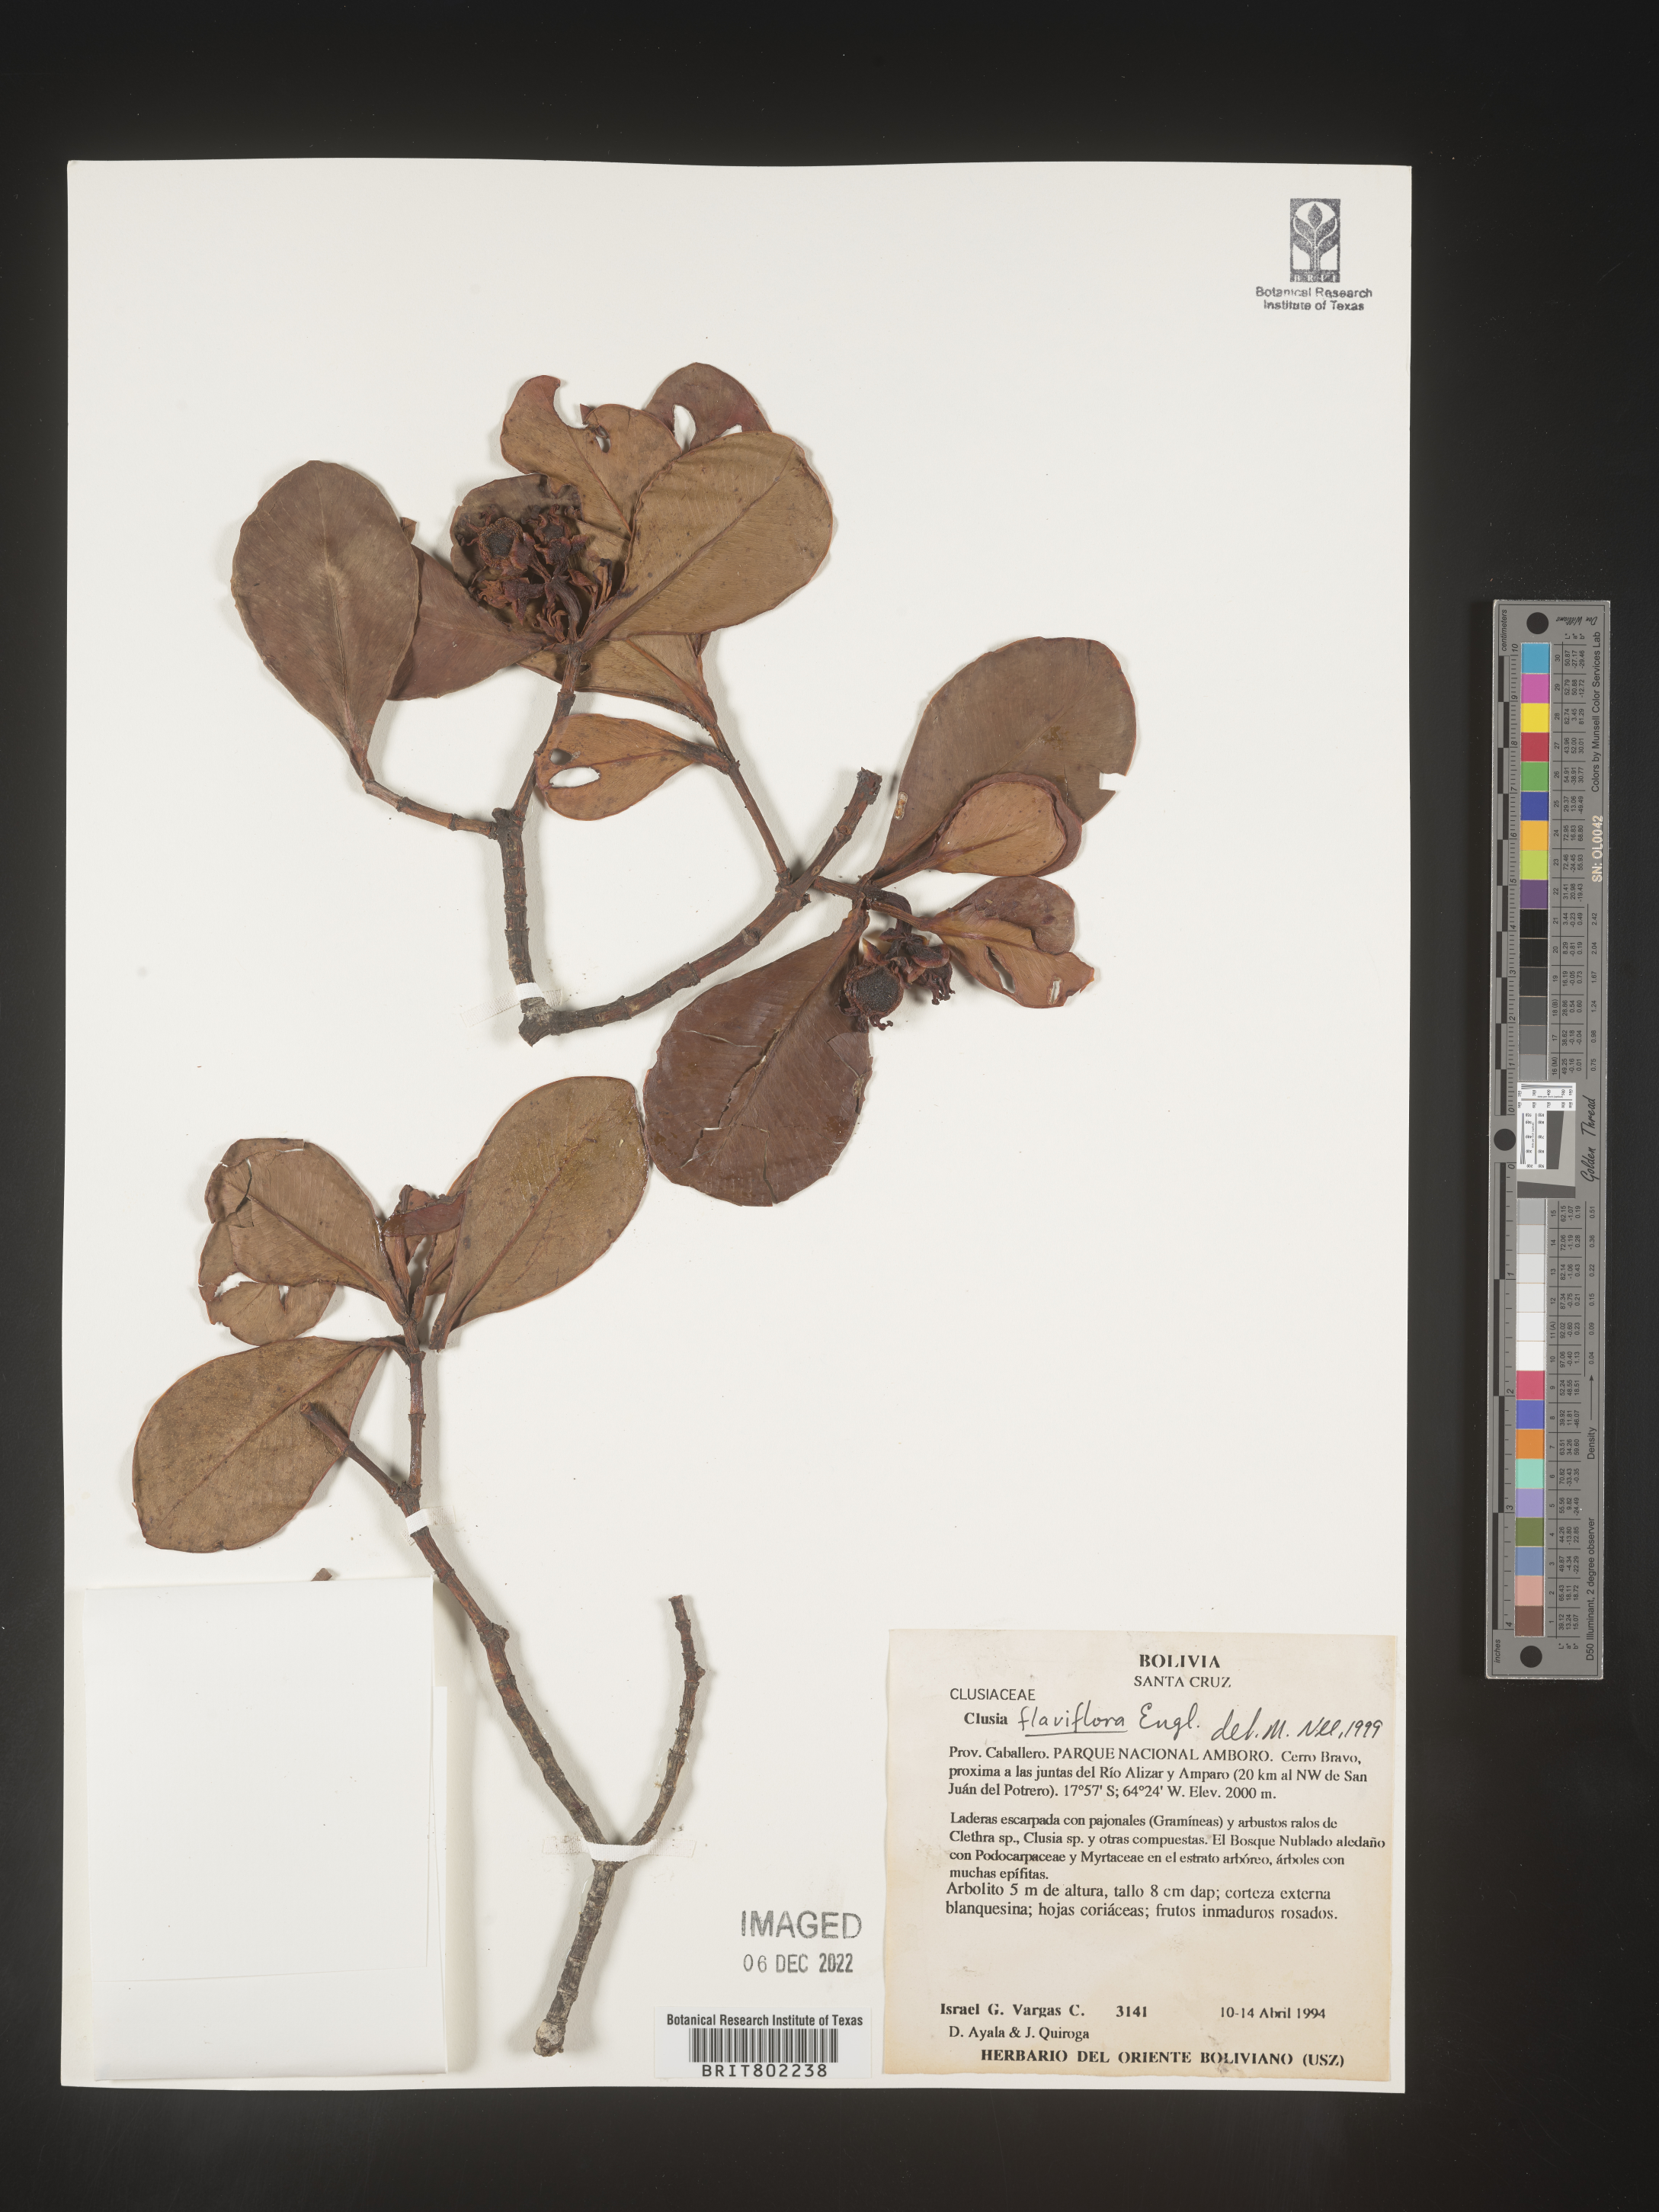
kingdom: Plantae
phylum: Tracheophyta
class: Magnoliopsida
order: Malpighiales
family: Clusiaceae
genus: Clusia
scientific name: Clusia sphaerocarpa
